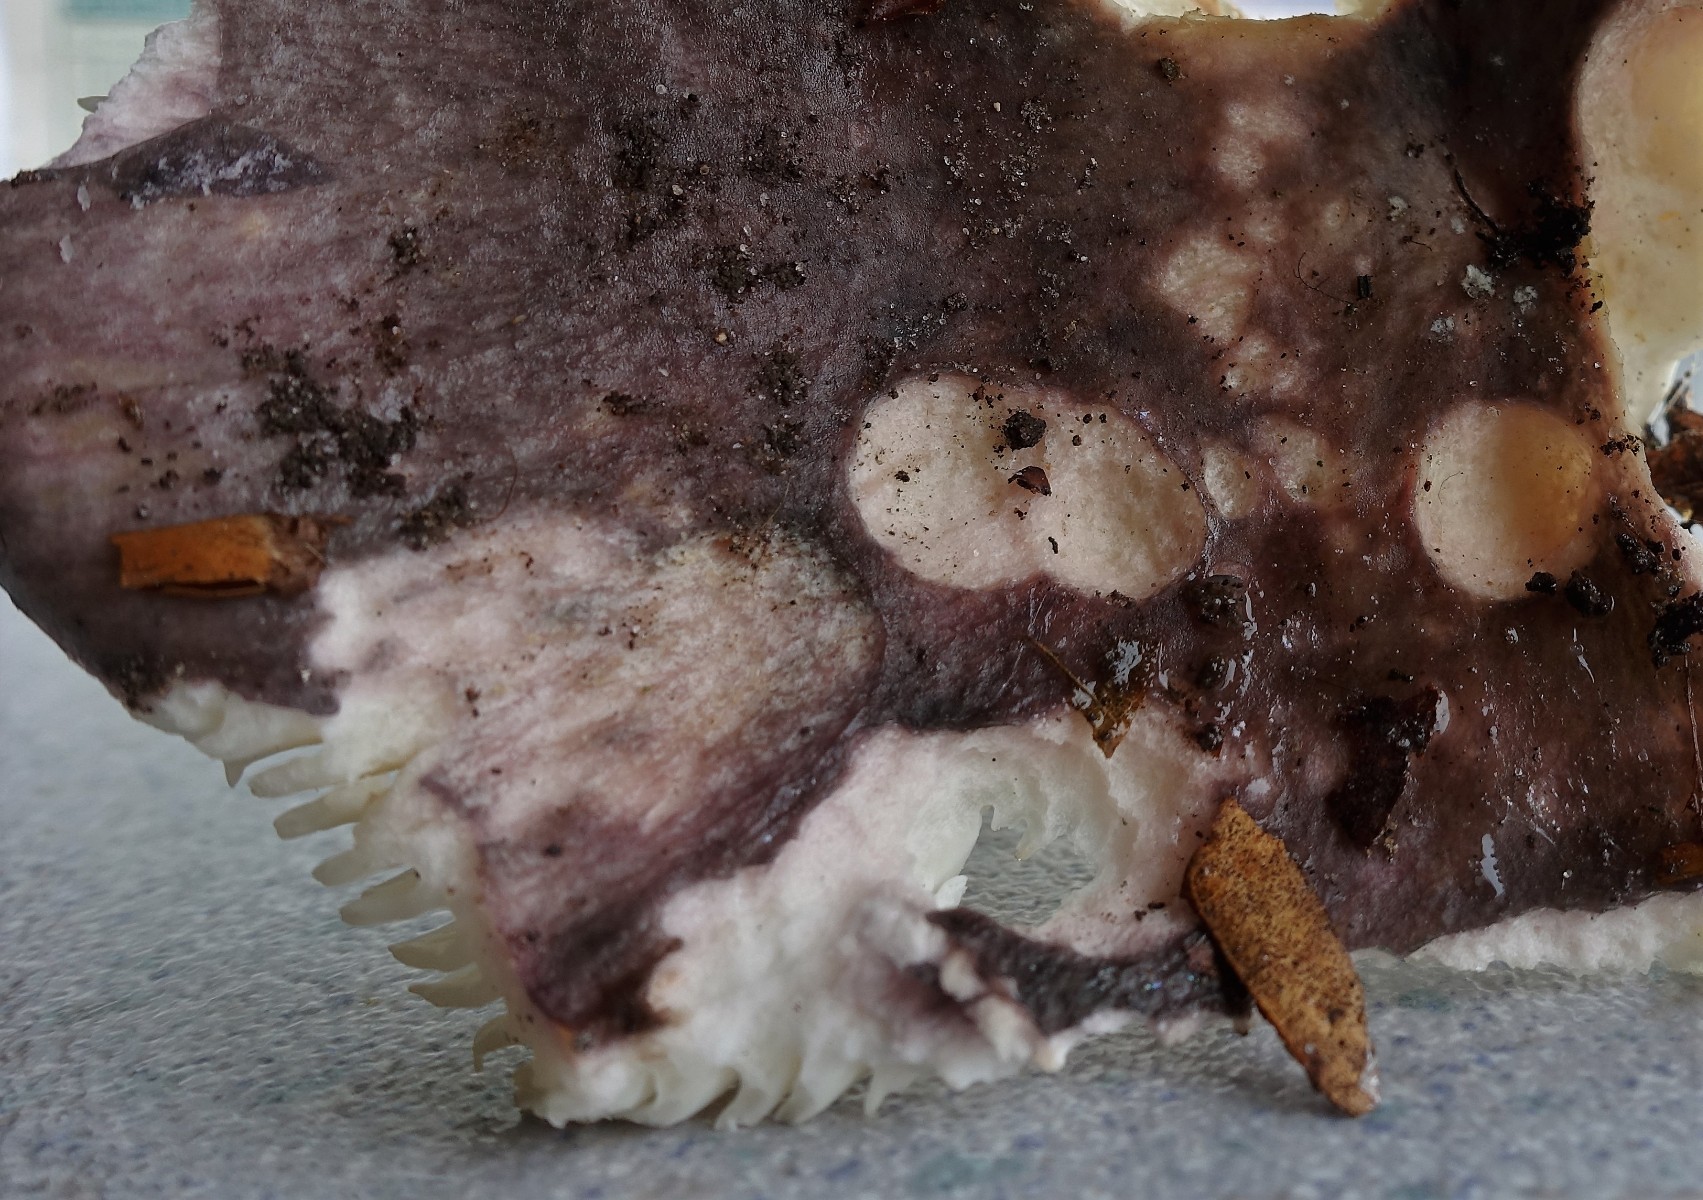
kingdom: Fungi
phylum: Basidiomycota
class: Agaricomycetes
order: Russulales
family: Russulaceae
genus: Russula
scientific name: Russula heterophylla
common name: gaffelbladet skørhat
